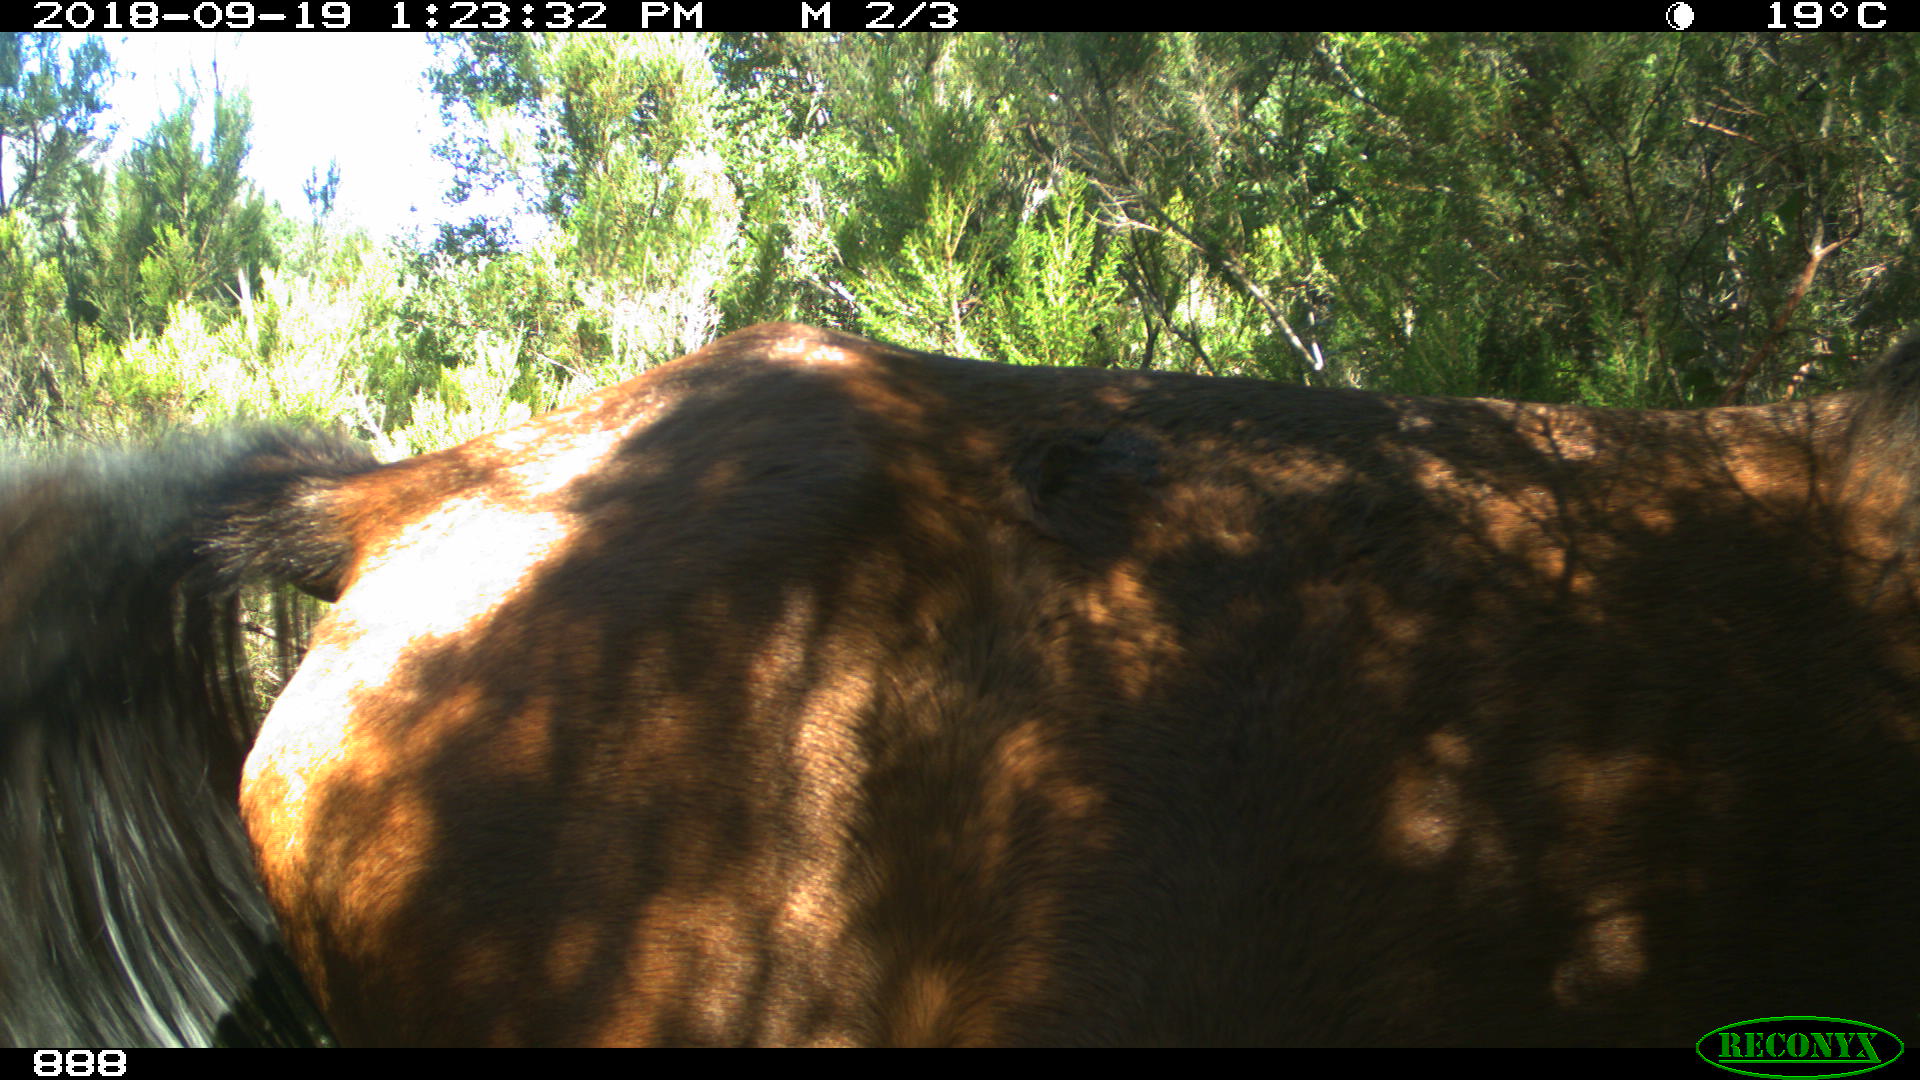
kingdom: Animalia
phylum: Chordata
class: Mammalia
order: Perissodactyla
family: Equidae
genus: Equus
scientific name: Equus caballus
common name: Horse
